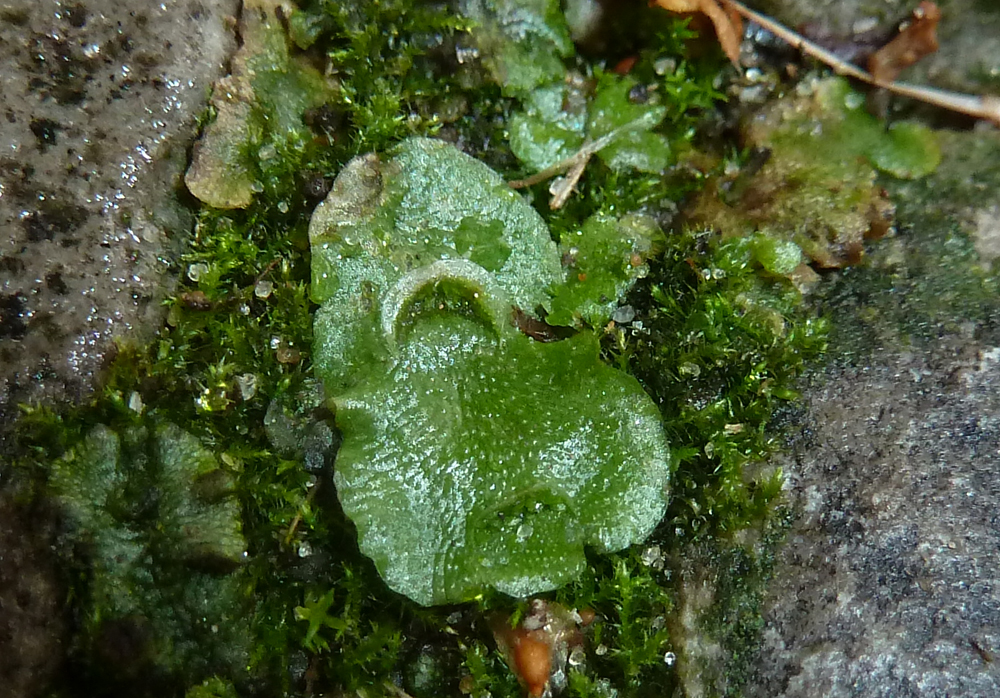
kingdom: Plantae
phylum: Marchantiophyta
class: Marchantiopsida
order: Lunulariales
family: Lunulariaceae
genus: Lunularia
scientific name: Lunularia cruciata
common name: Crescent-cup liverwort
